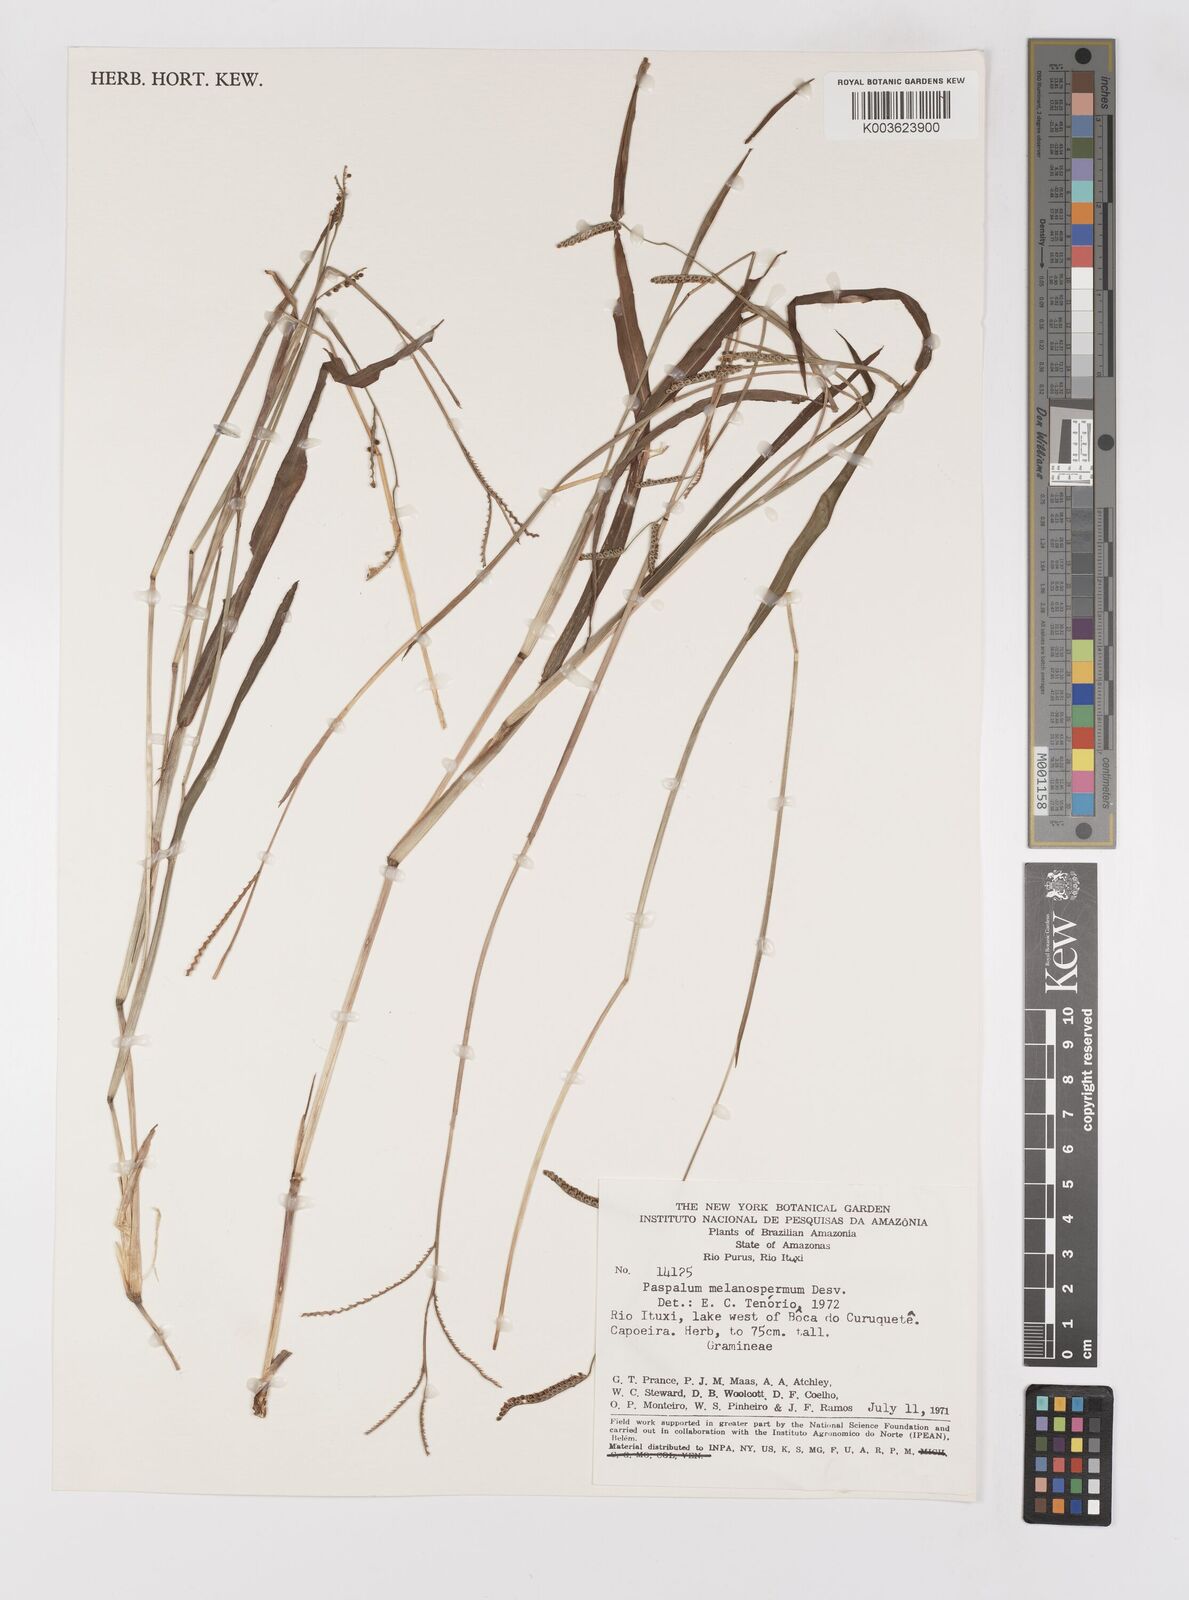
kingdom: Plantae
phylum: Tracheophyta
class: Liliopsida
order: Poales
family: Poaceae
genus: Paspalum
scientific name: Paspalum melanospermum
